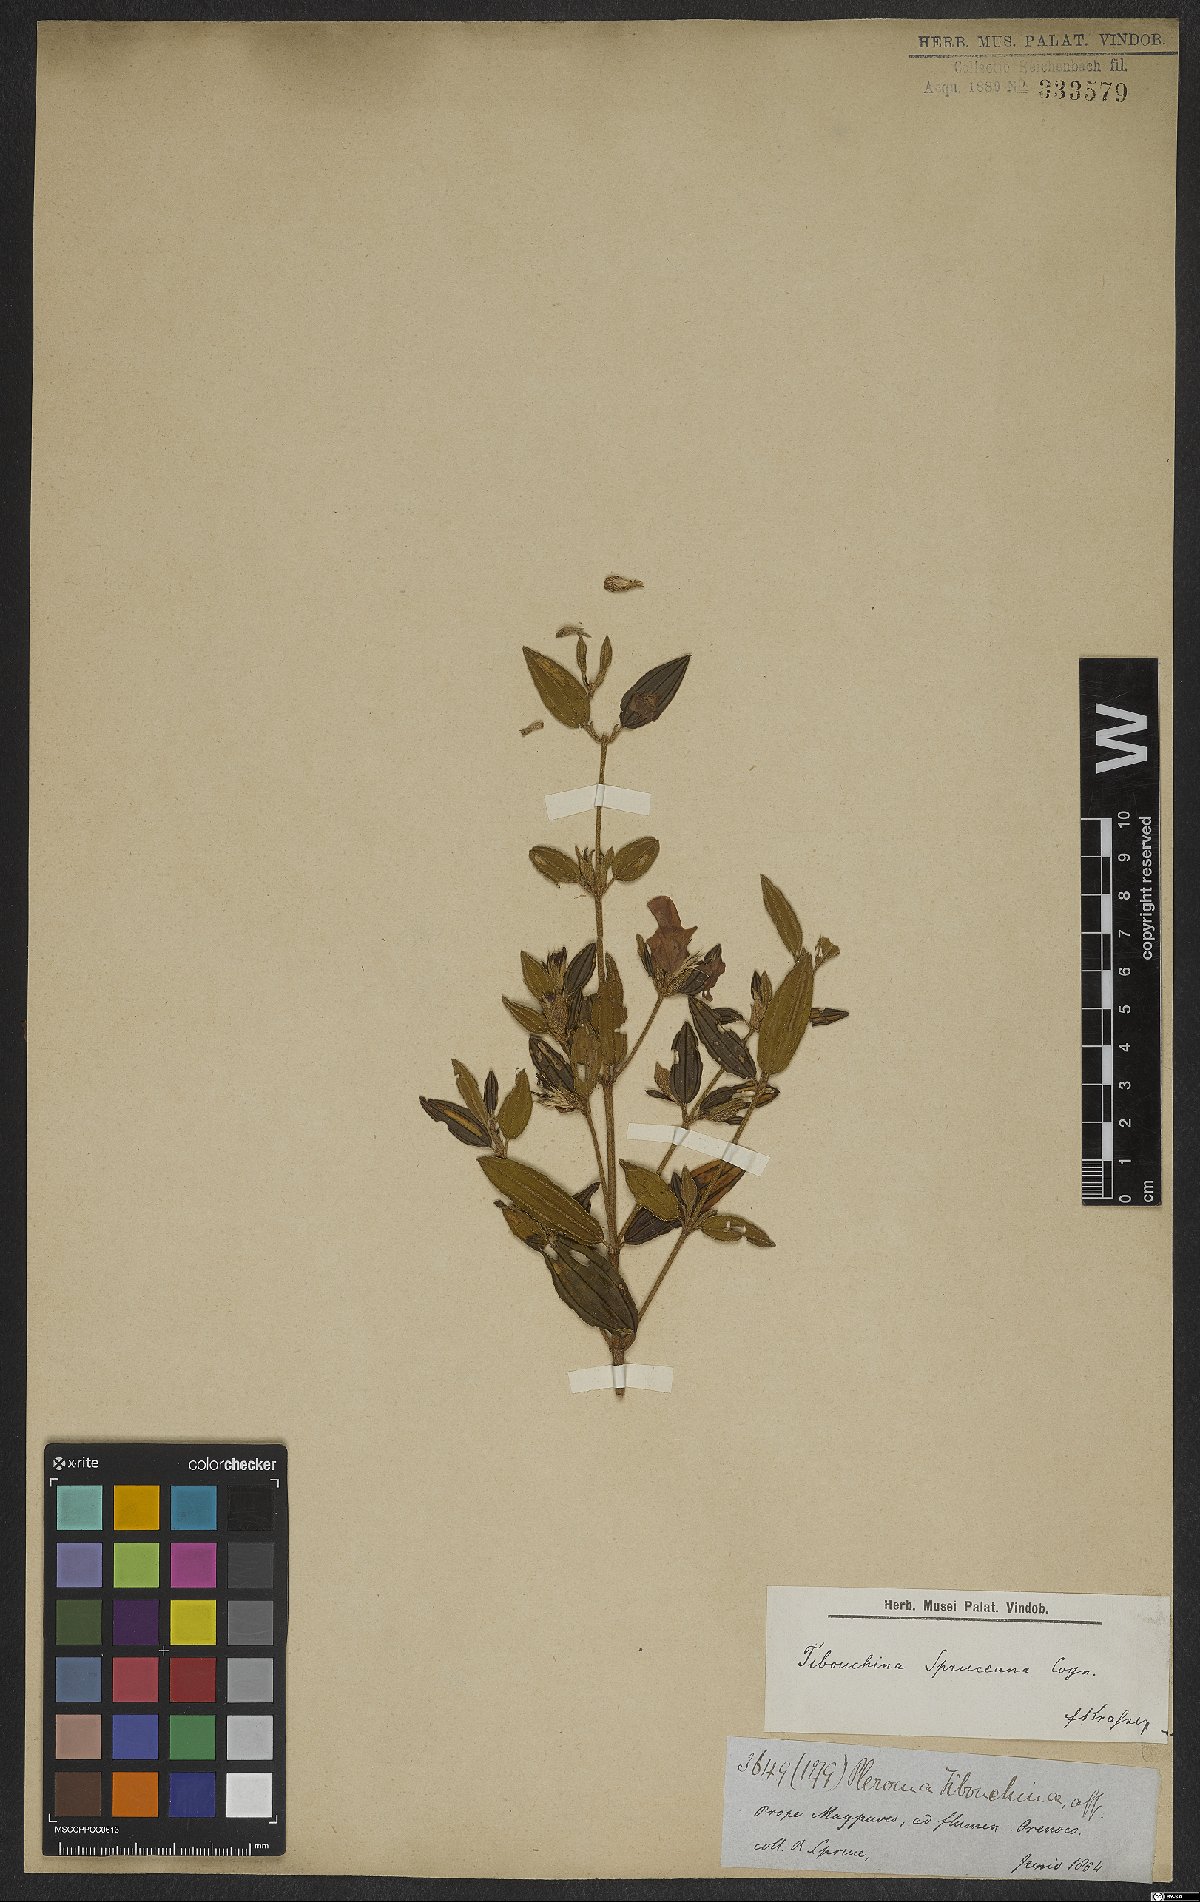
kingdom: Plantae
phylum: Tracheophyta
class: Magnoliopsida
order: Myrtales
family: Melastomataceae
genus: Tibouchina
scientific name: Tibouchina spruceana
